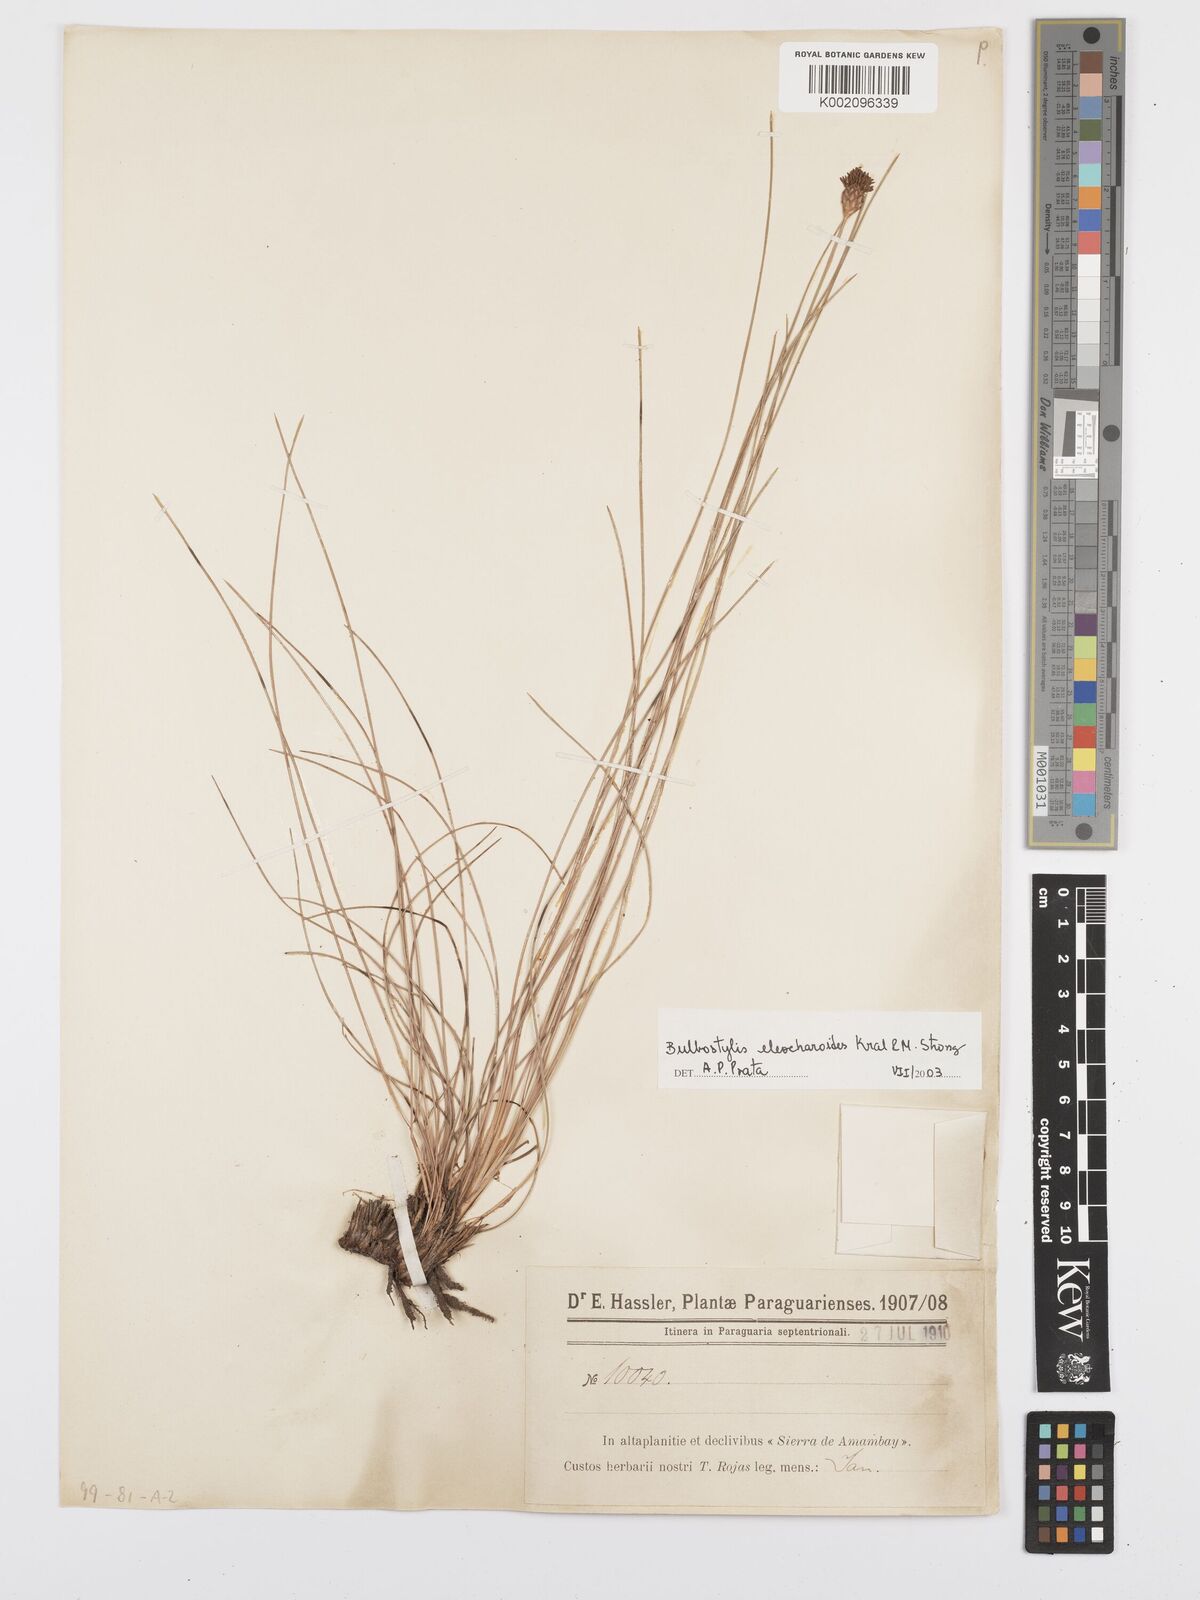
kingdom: Plantae
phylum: Tracheophyta
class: Liliopsida
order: Poales
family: Cyperaceae
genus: Bulbostylis
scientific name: Bulbostylis eleocharoides
